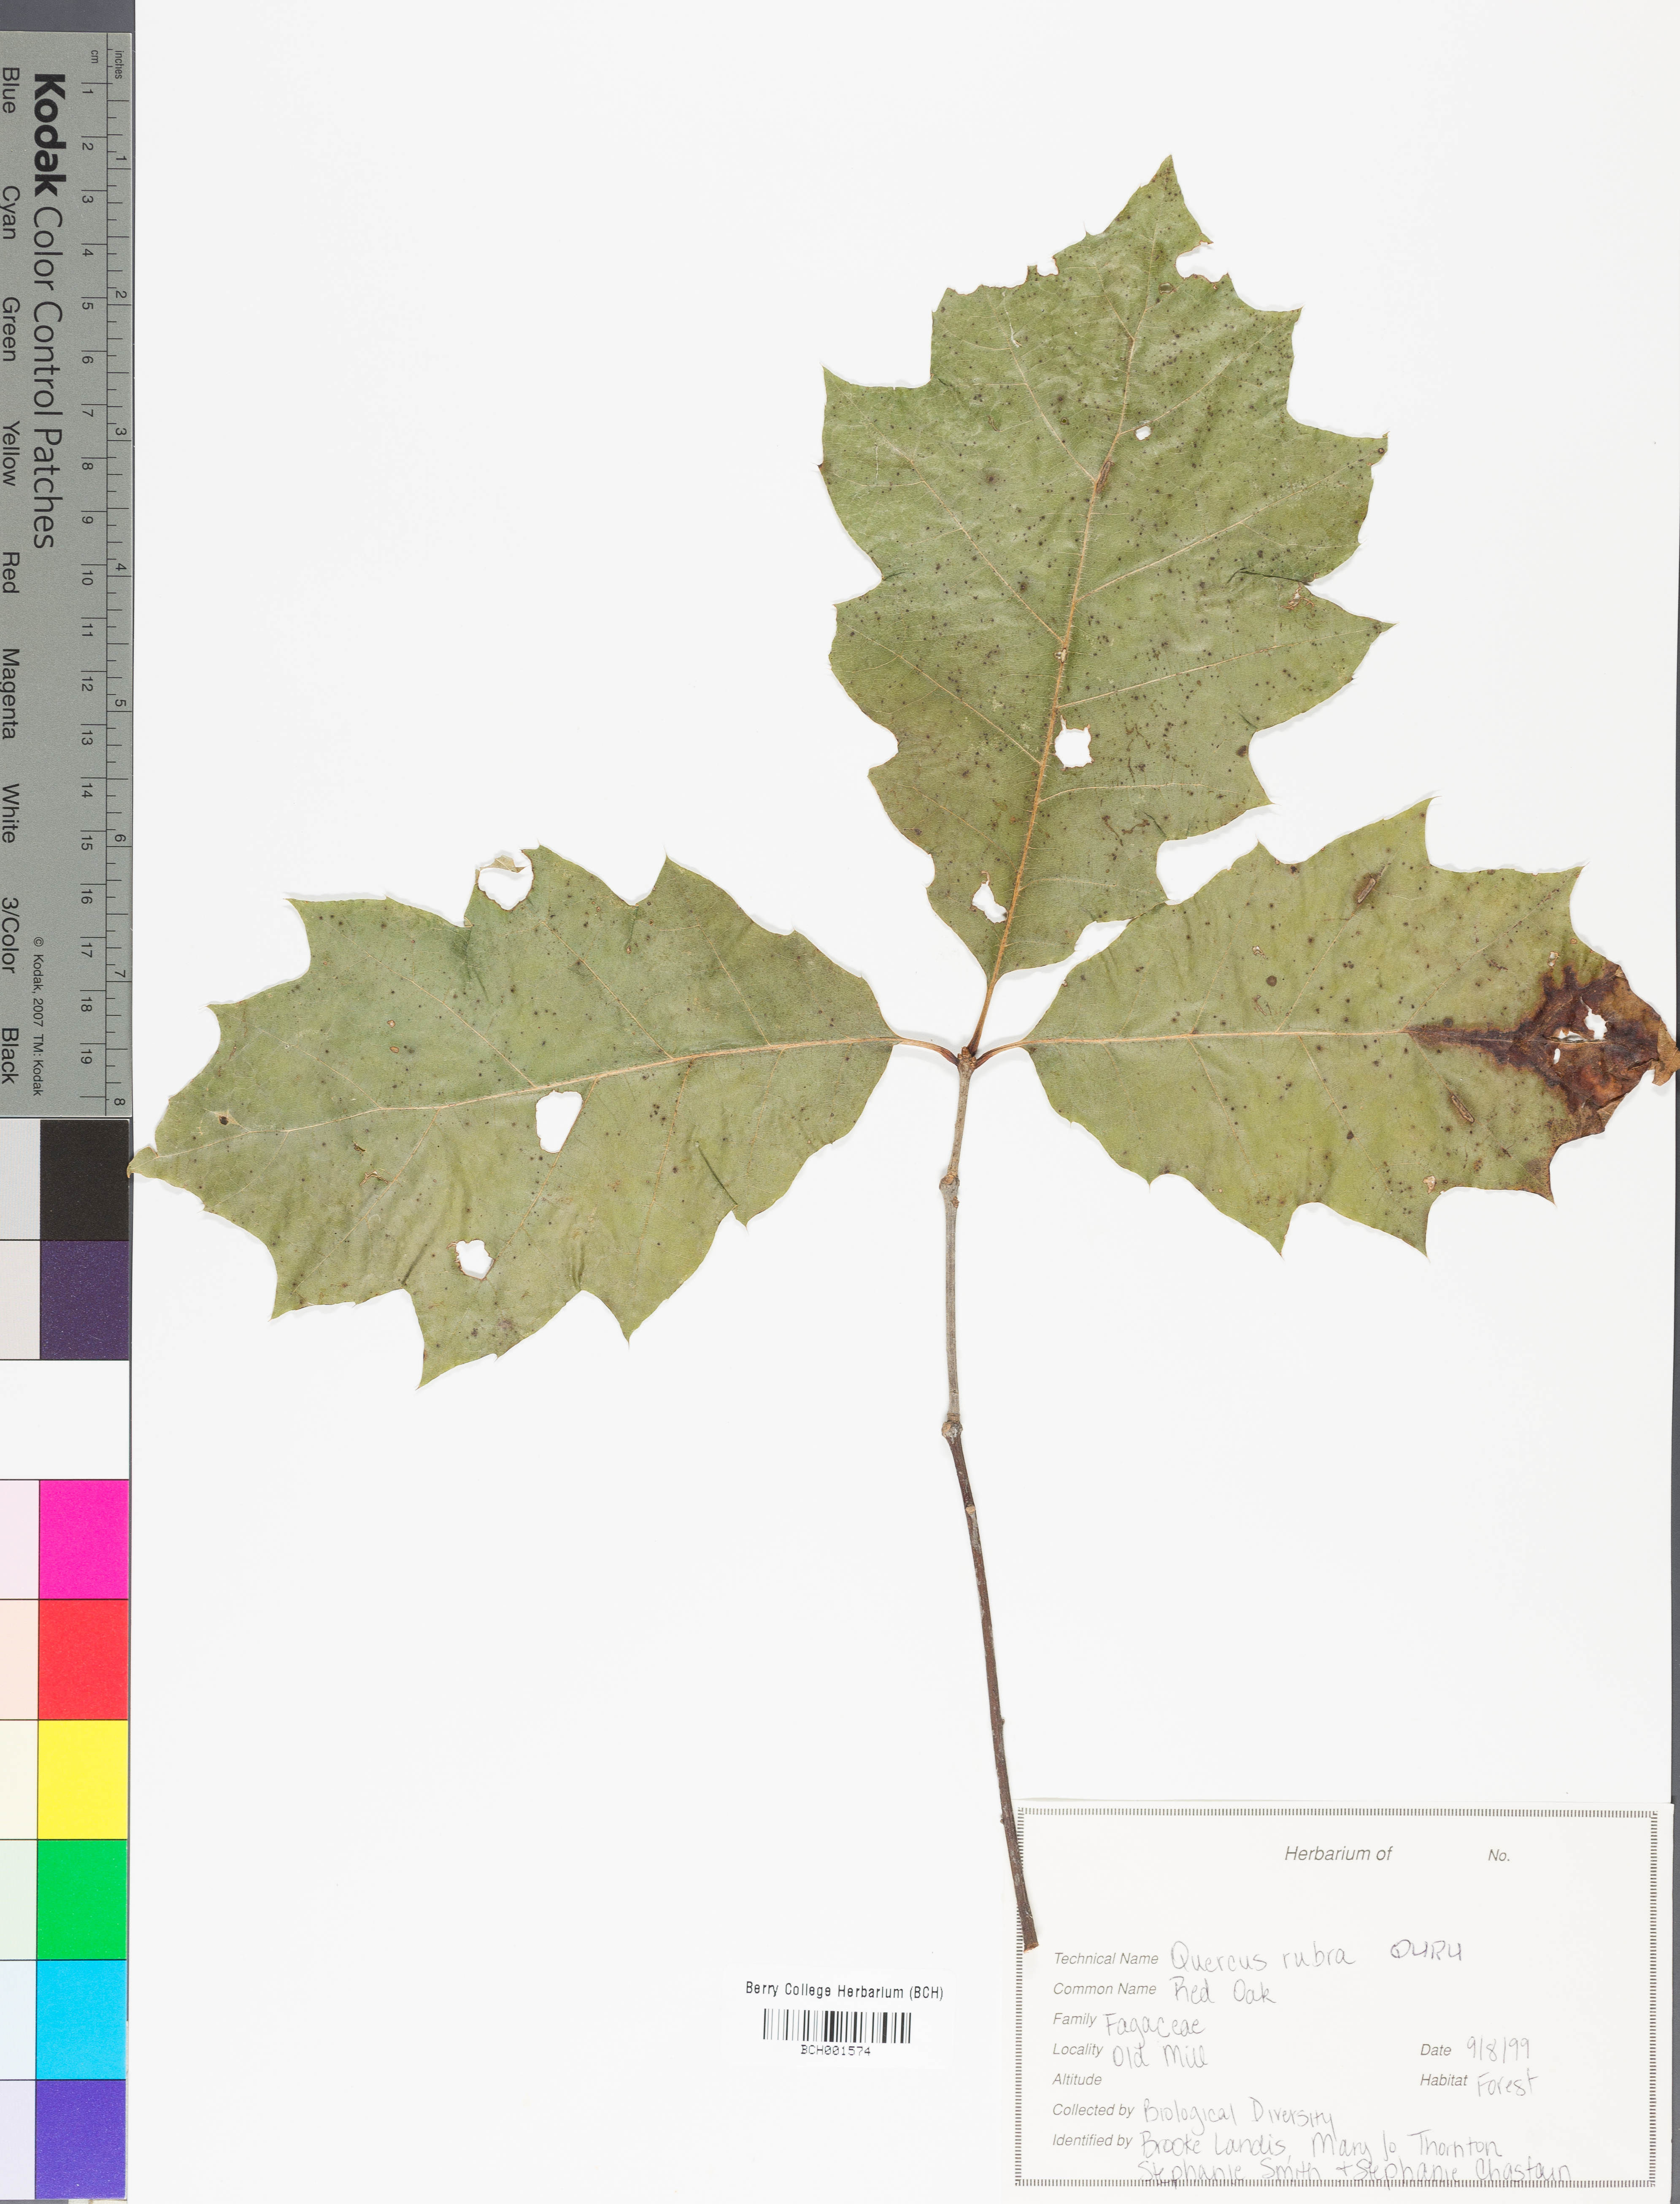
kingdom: Plantae
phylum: Tracheophyta
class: Magnoliopsida
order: Fagales
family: Fagaceae
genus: Quercus
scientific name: Quercus rubra
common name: Red oak
